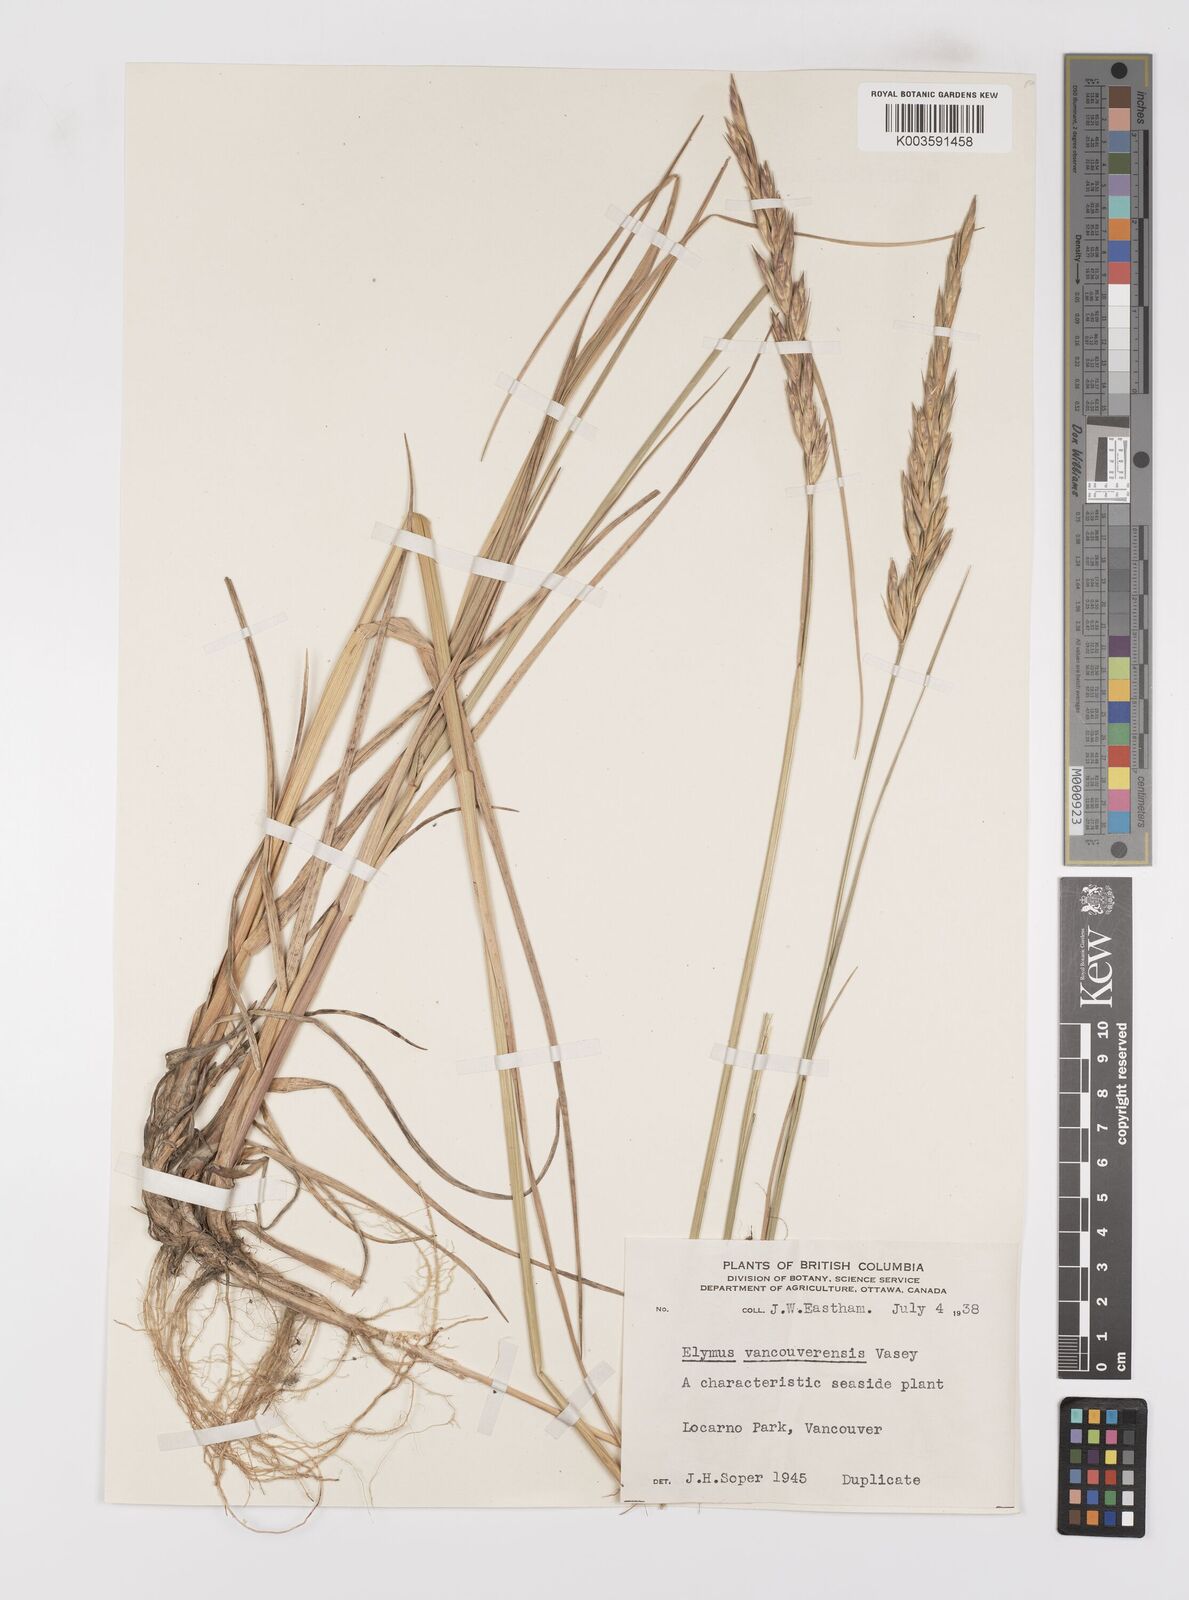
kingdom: Plantae
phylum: Tracheophyta
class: Liliopsida
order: Poales
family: Poaceae
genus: Leymus
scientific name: Leymus vancouverensis
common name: Vancouver wild rye
